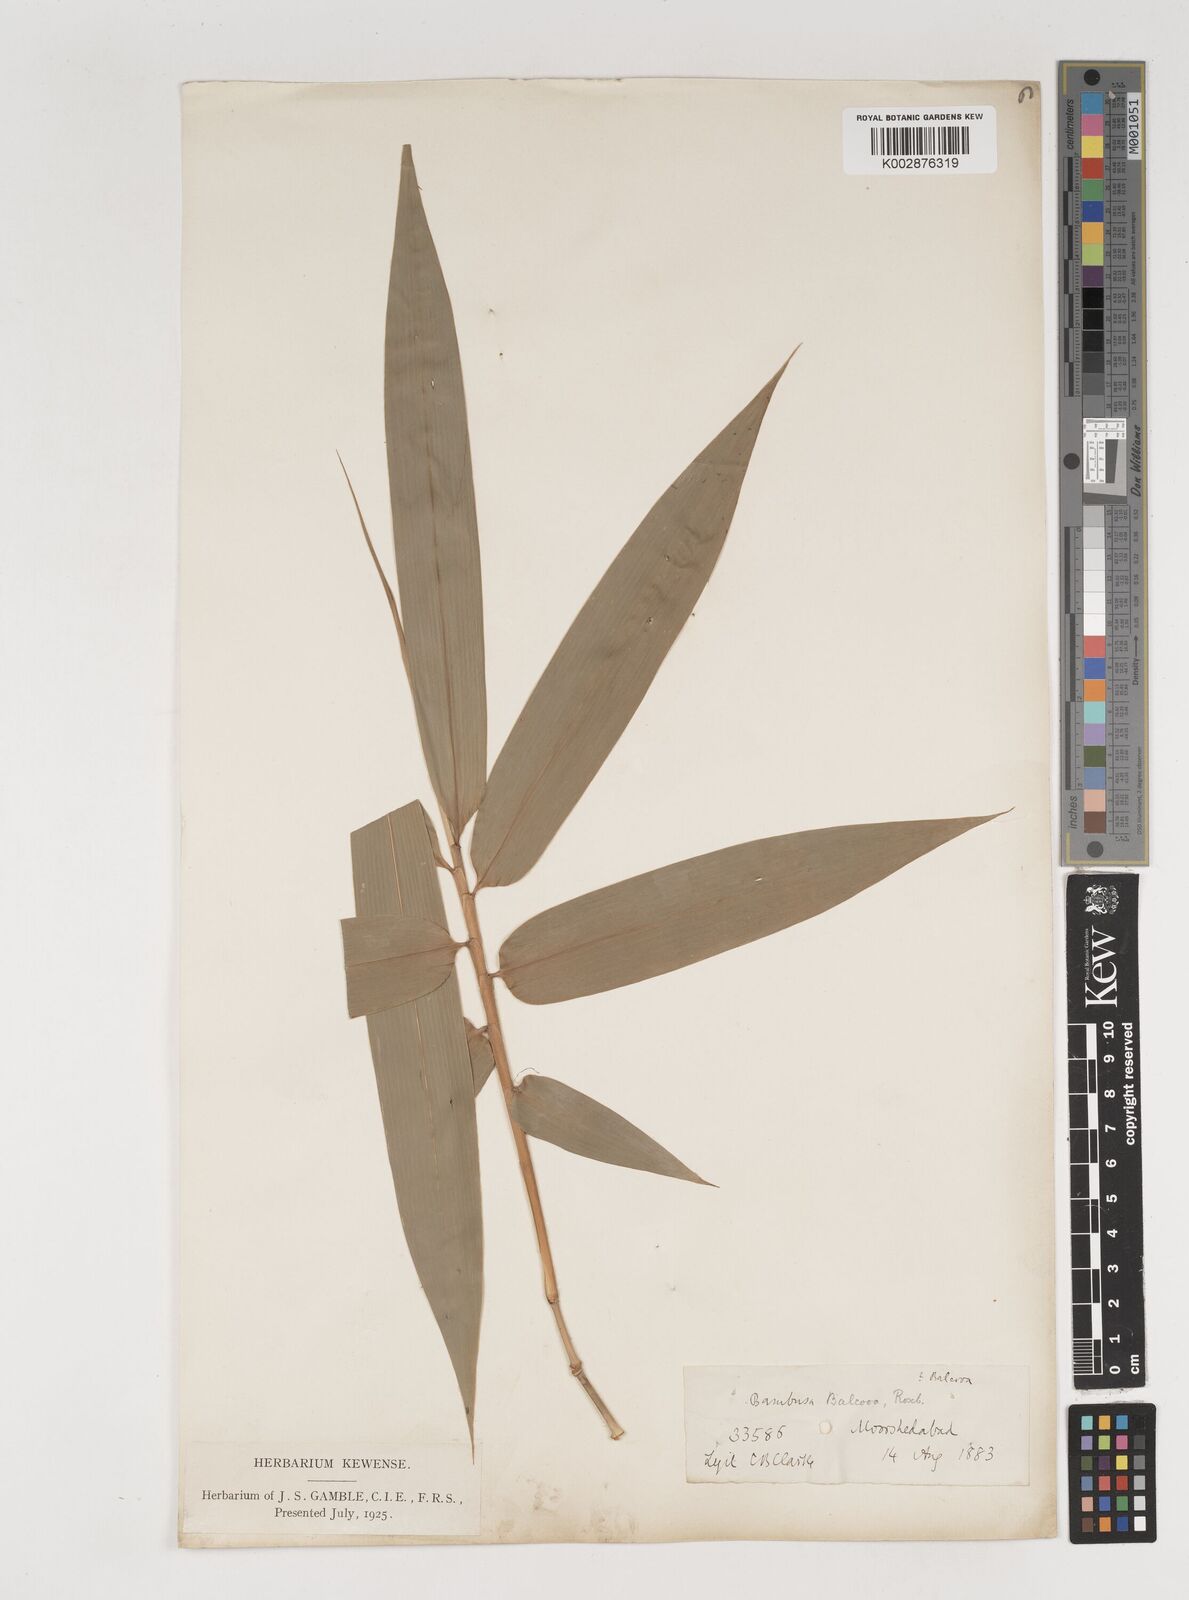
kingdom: Plantae
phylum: Tracheophyta
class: Liliopsida
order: Poales
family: Poaceae
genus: Bambusa
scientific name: Bambusa balcooa
